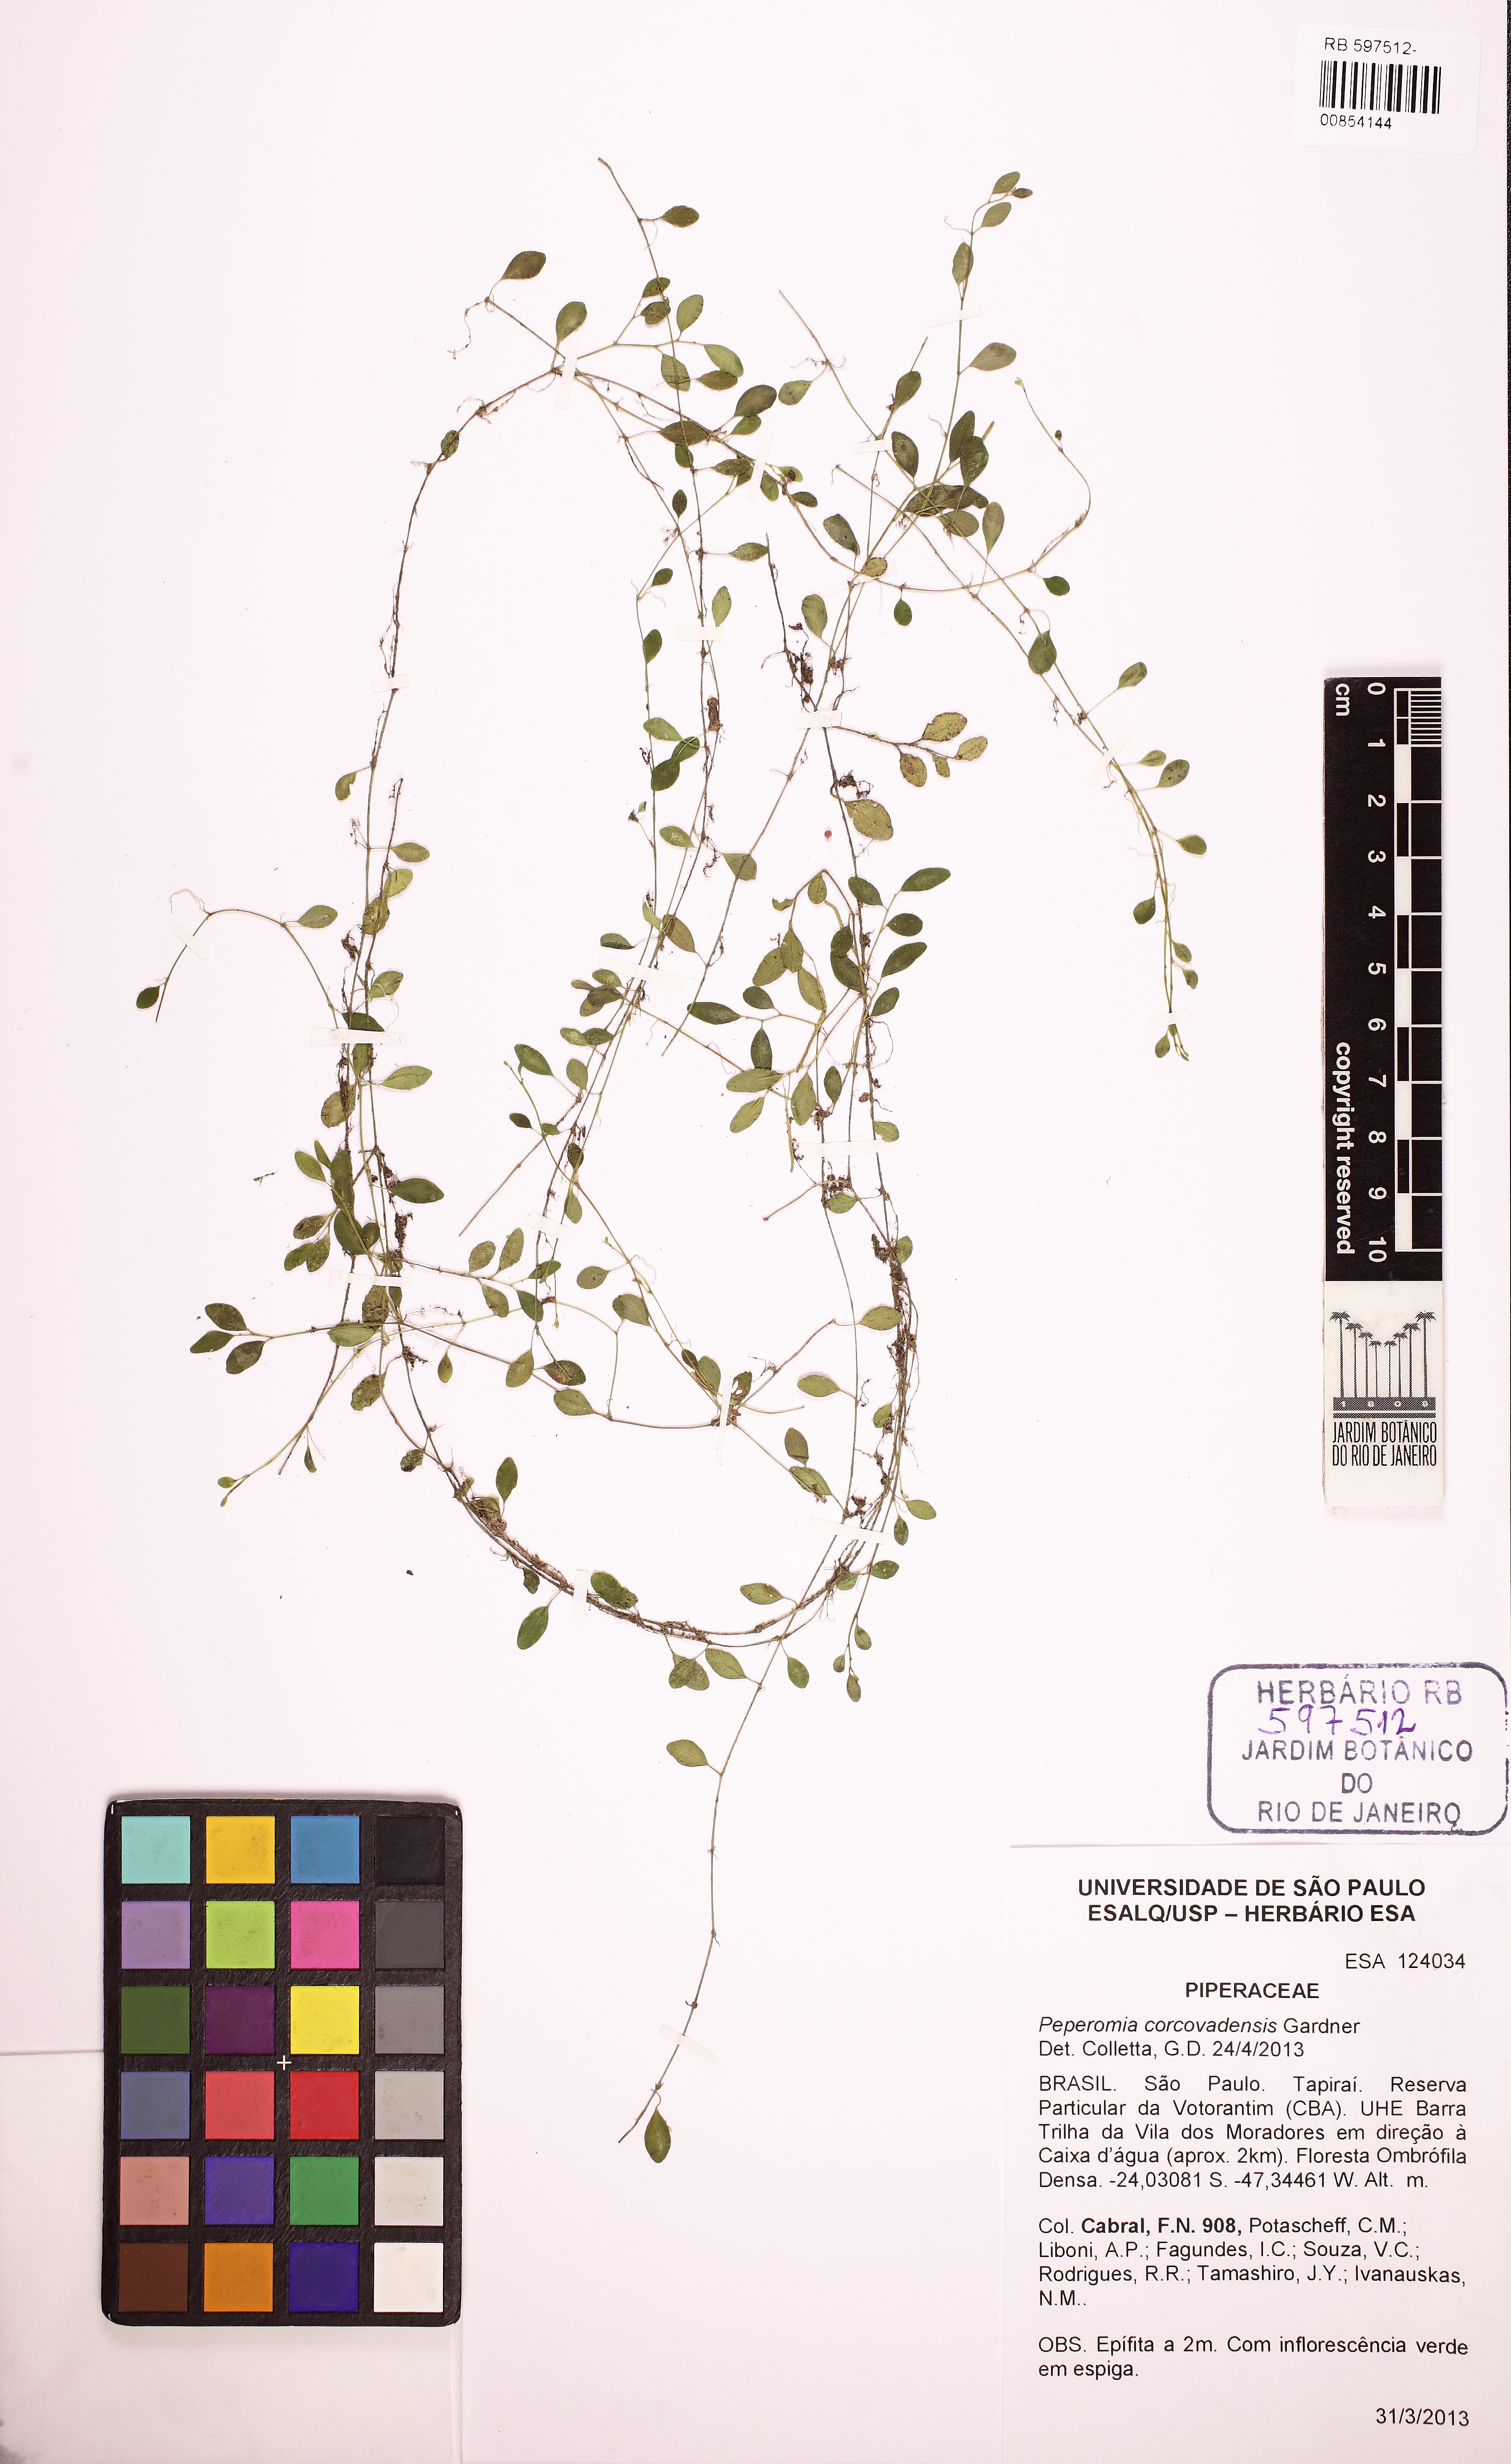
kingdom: Plantae
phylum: Tracheophyta
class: Magnoliopsida
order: Piperales
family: Piperaceae
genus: Peperomia
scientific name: Peperomia corcovadensis
